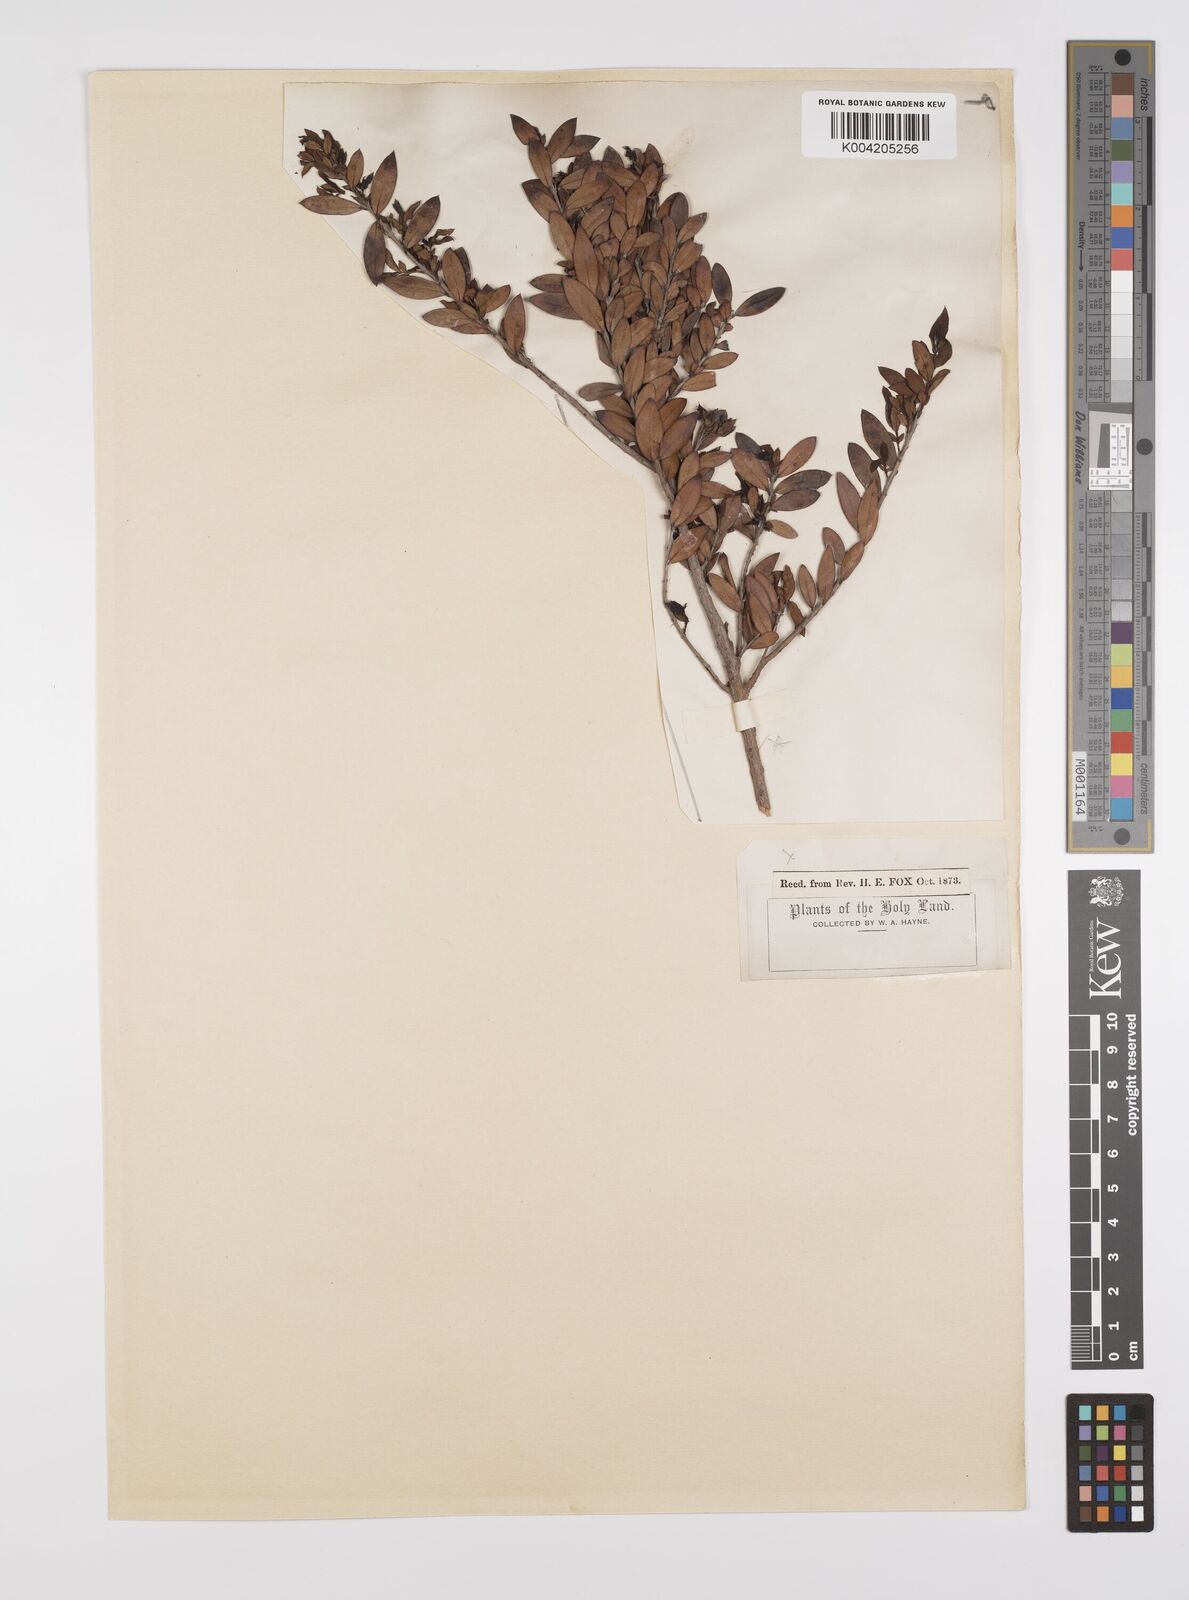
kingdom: Plantae
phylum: Tracheophyta
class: Magnoliopsida
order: Myrtales
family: Myrtaceae
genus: Myrtus
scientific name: Myrtus communis
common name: Myrtle
